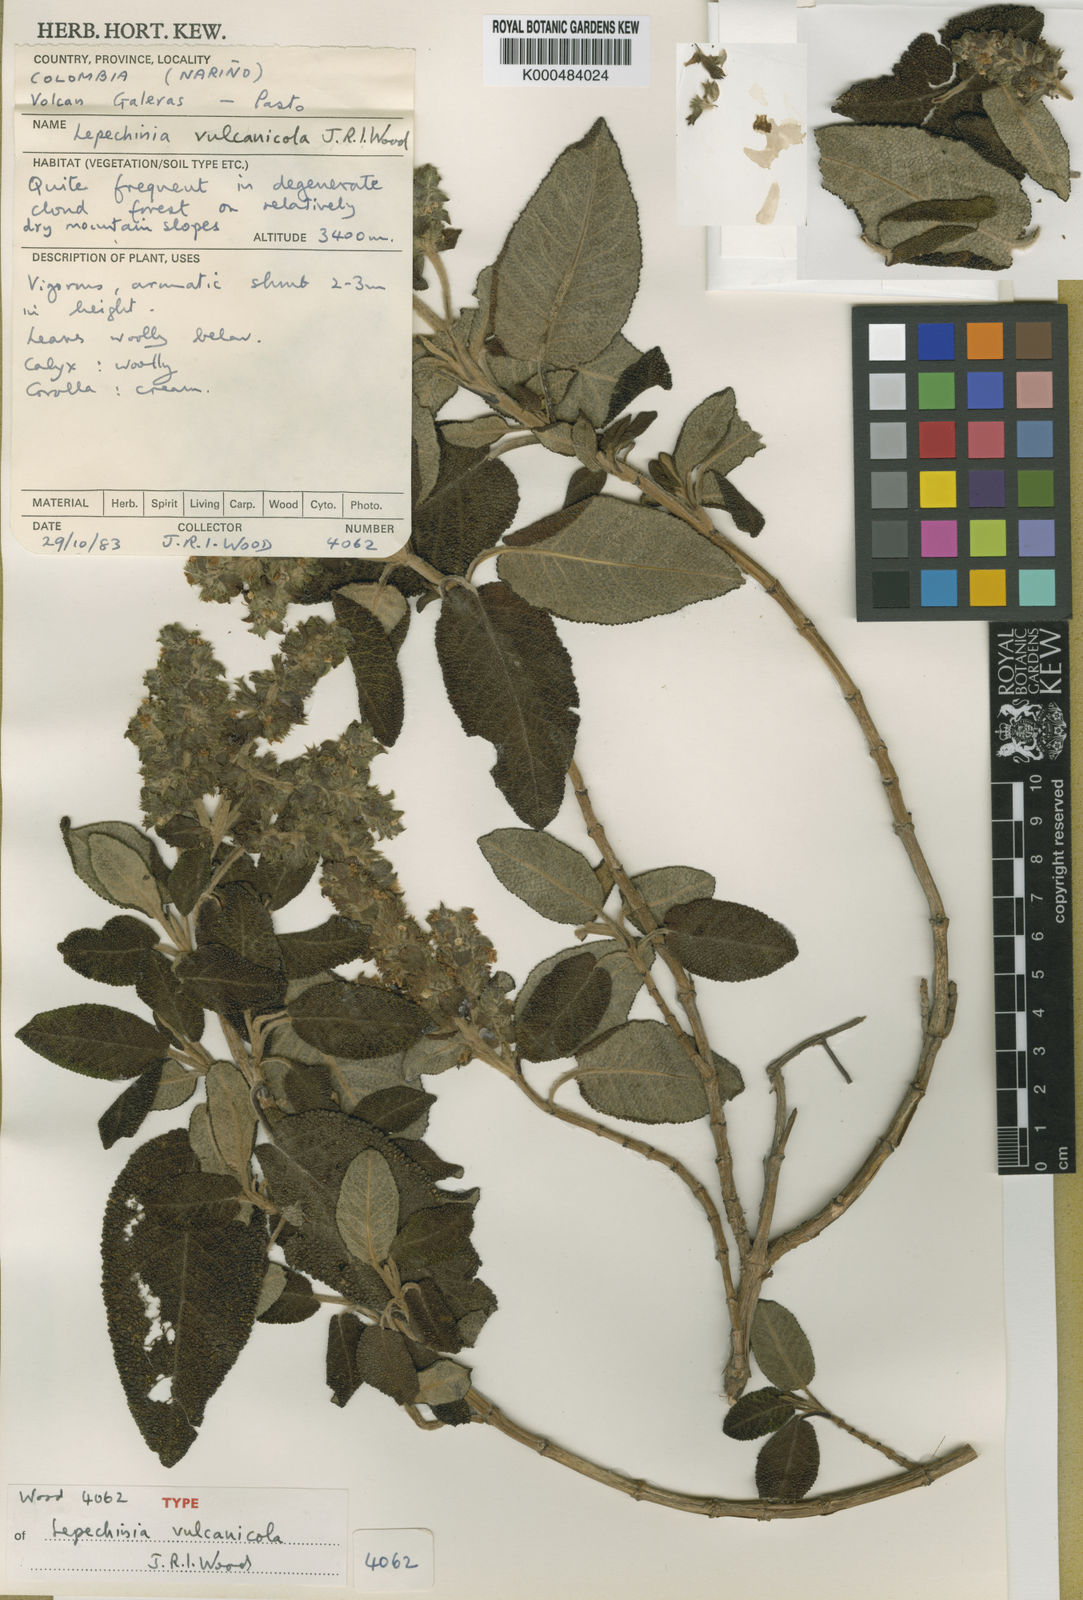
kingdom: Plantae
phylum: Tracheophyta
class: Magnoliopsida
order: Lamiales
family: Lamiaceae
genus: Lepechinia
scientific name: Lepechinia vulcanicola
